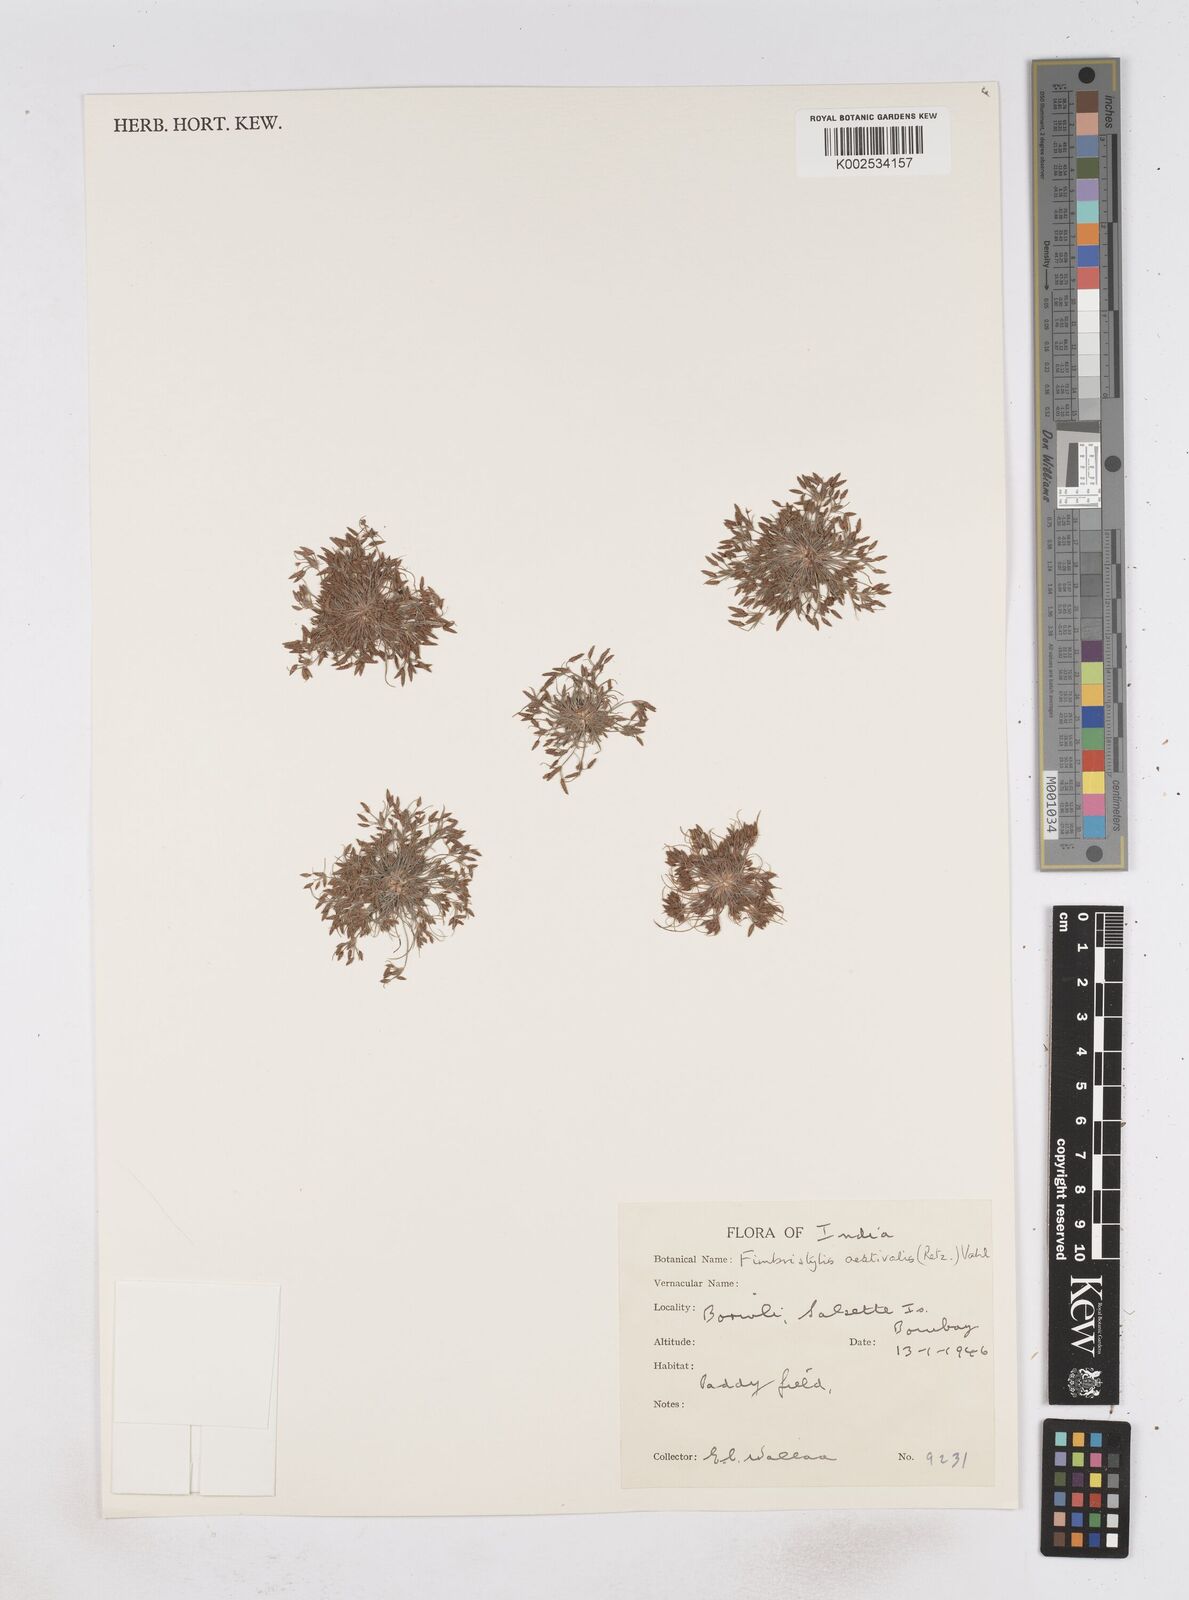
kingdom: Plantae
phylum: Tracheophyta
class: Liliopsida
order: Poales
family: Cyperaceae
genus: Fimbristylis
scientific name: Fimbristylis aestivalis
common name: Summer fimbry
